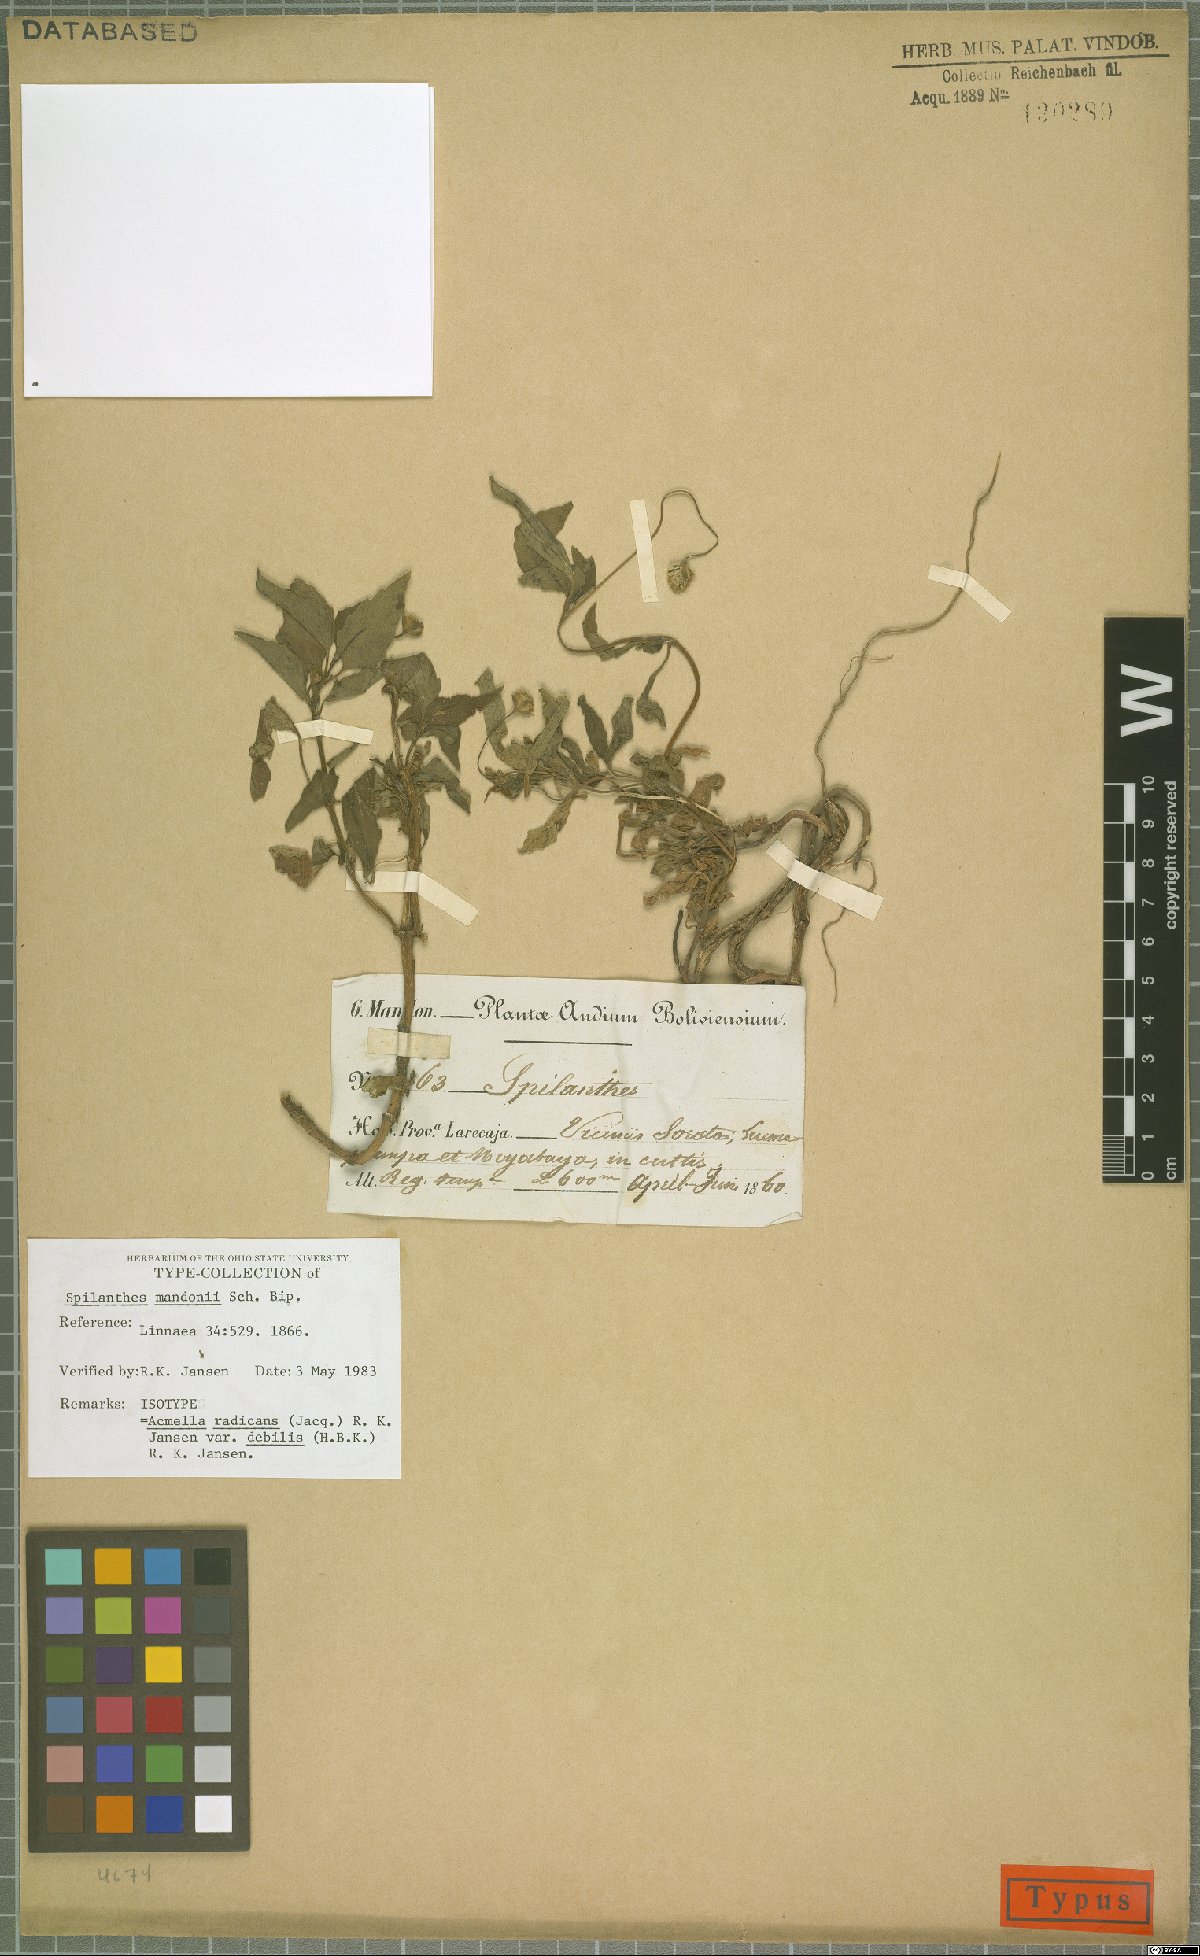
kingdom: Plantae
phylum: Tracheophyta
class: Magnoliopsida
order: Asterales
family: Asteraceae
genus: Acmella
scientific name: Acmella radicans
